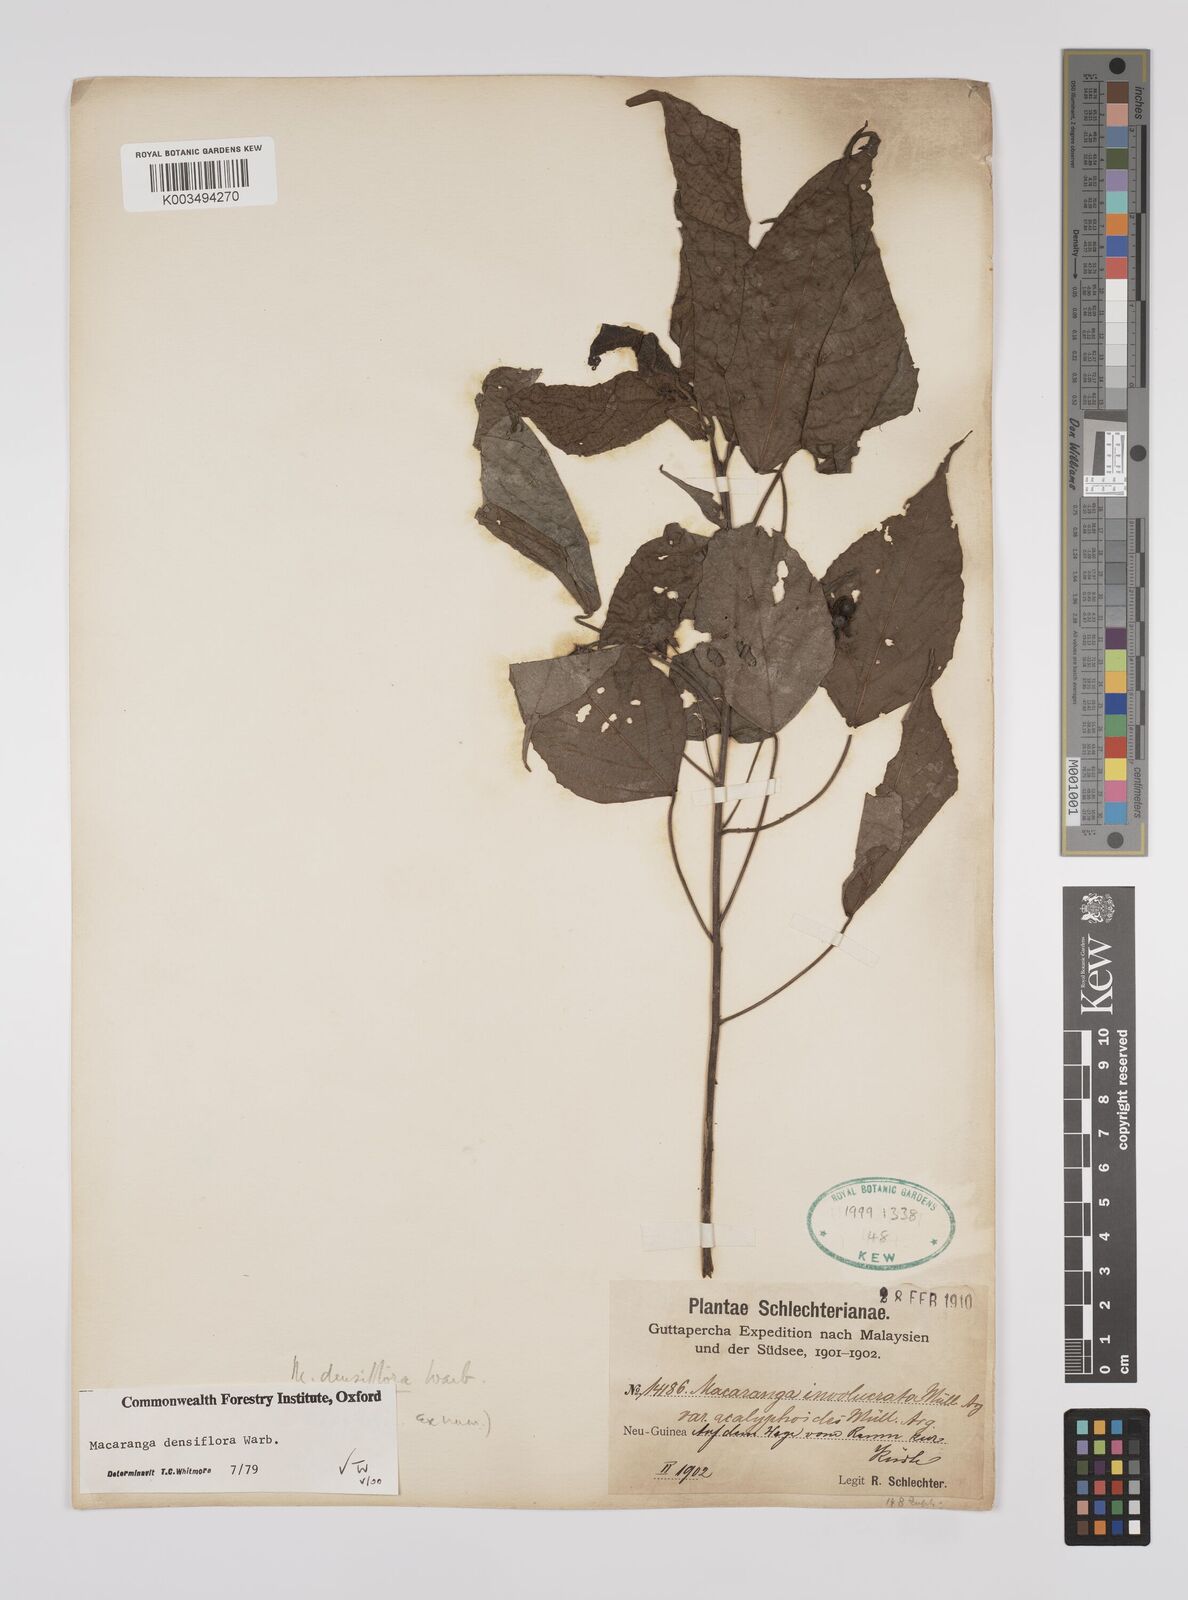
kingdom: Plantae
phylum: Tracheophyta
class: Magnoliopsida
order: Malpighiales
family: Euphorbiaceae
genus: Macaranga
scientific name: Macaranga densiflora
